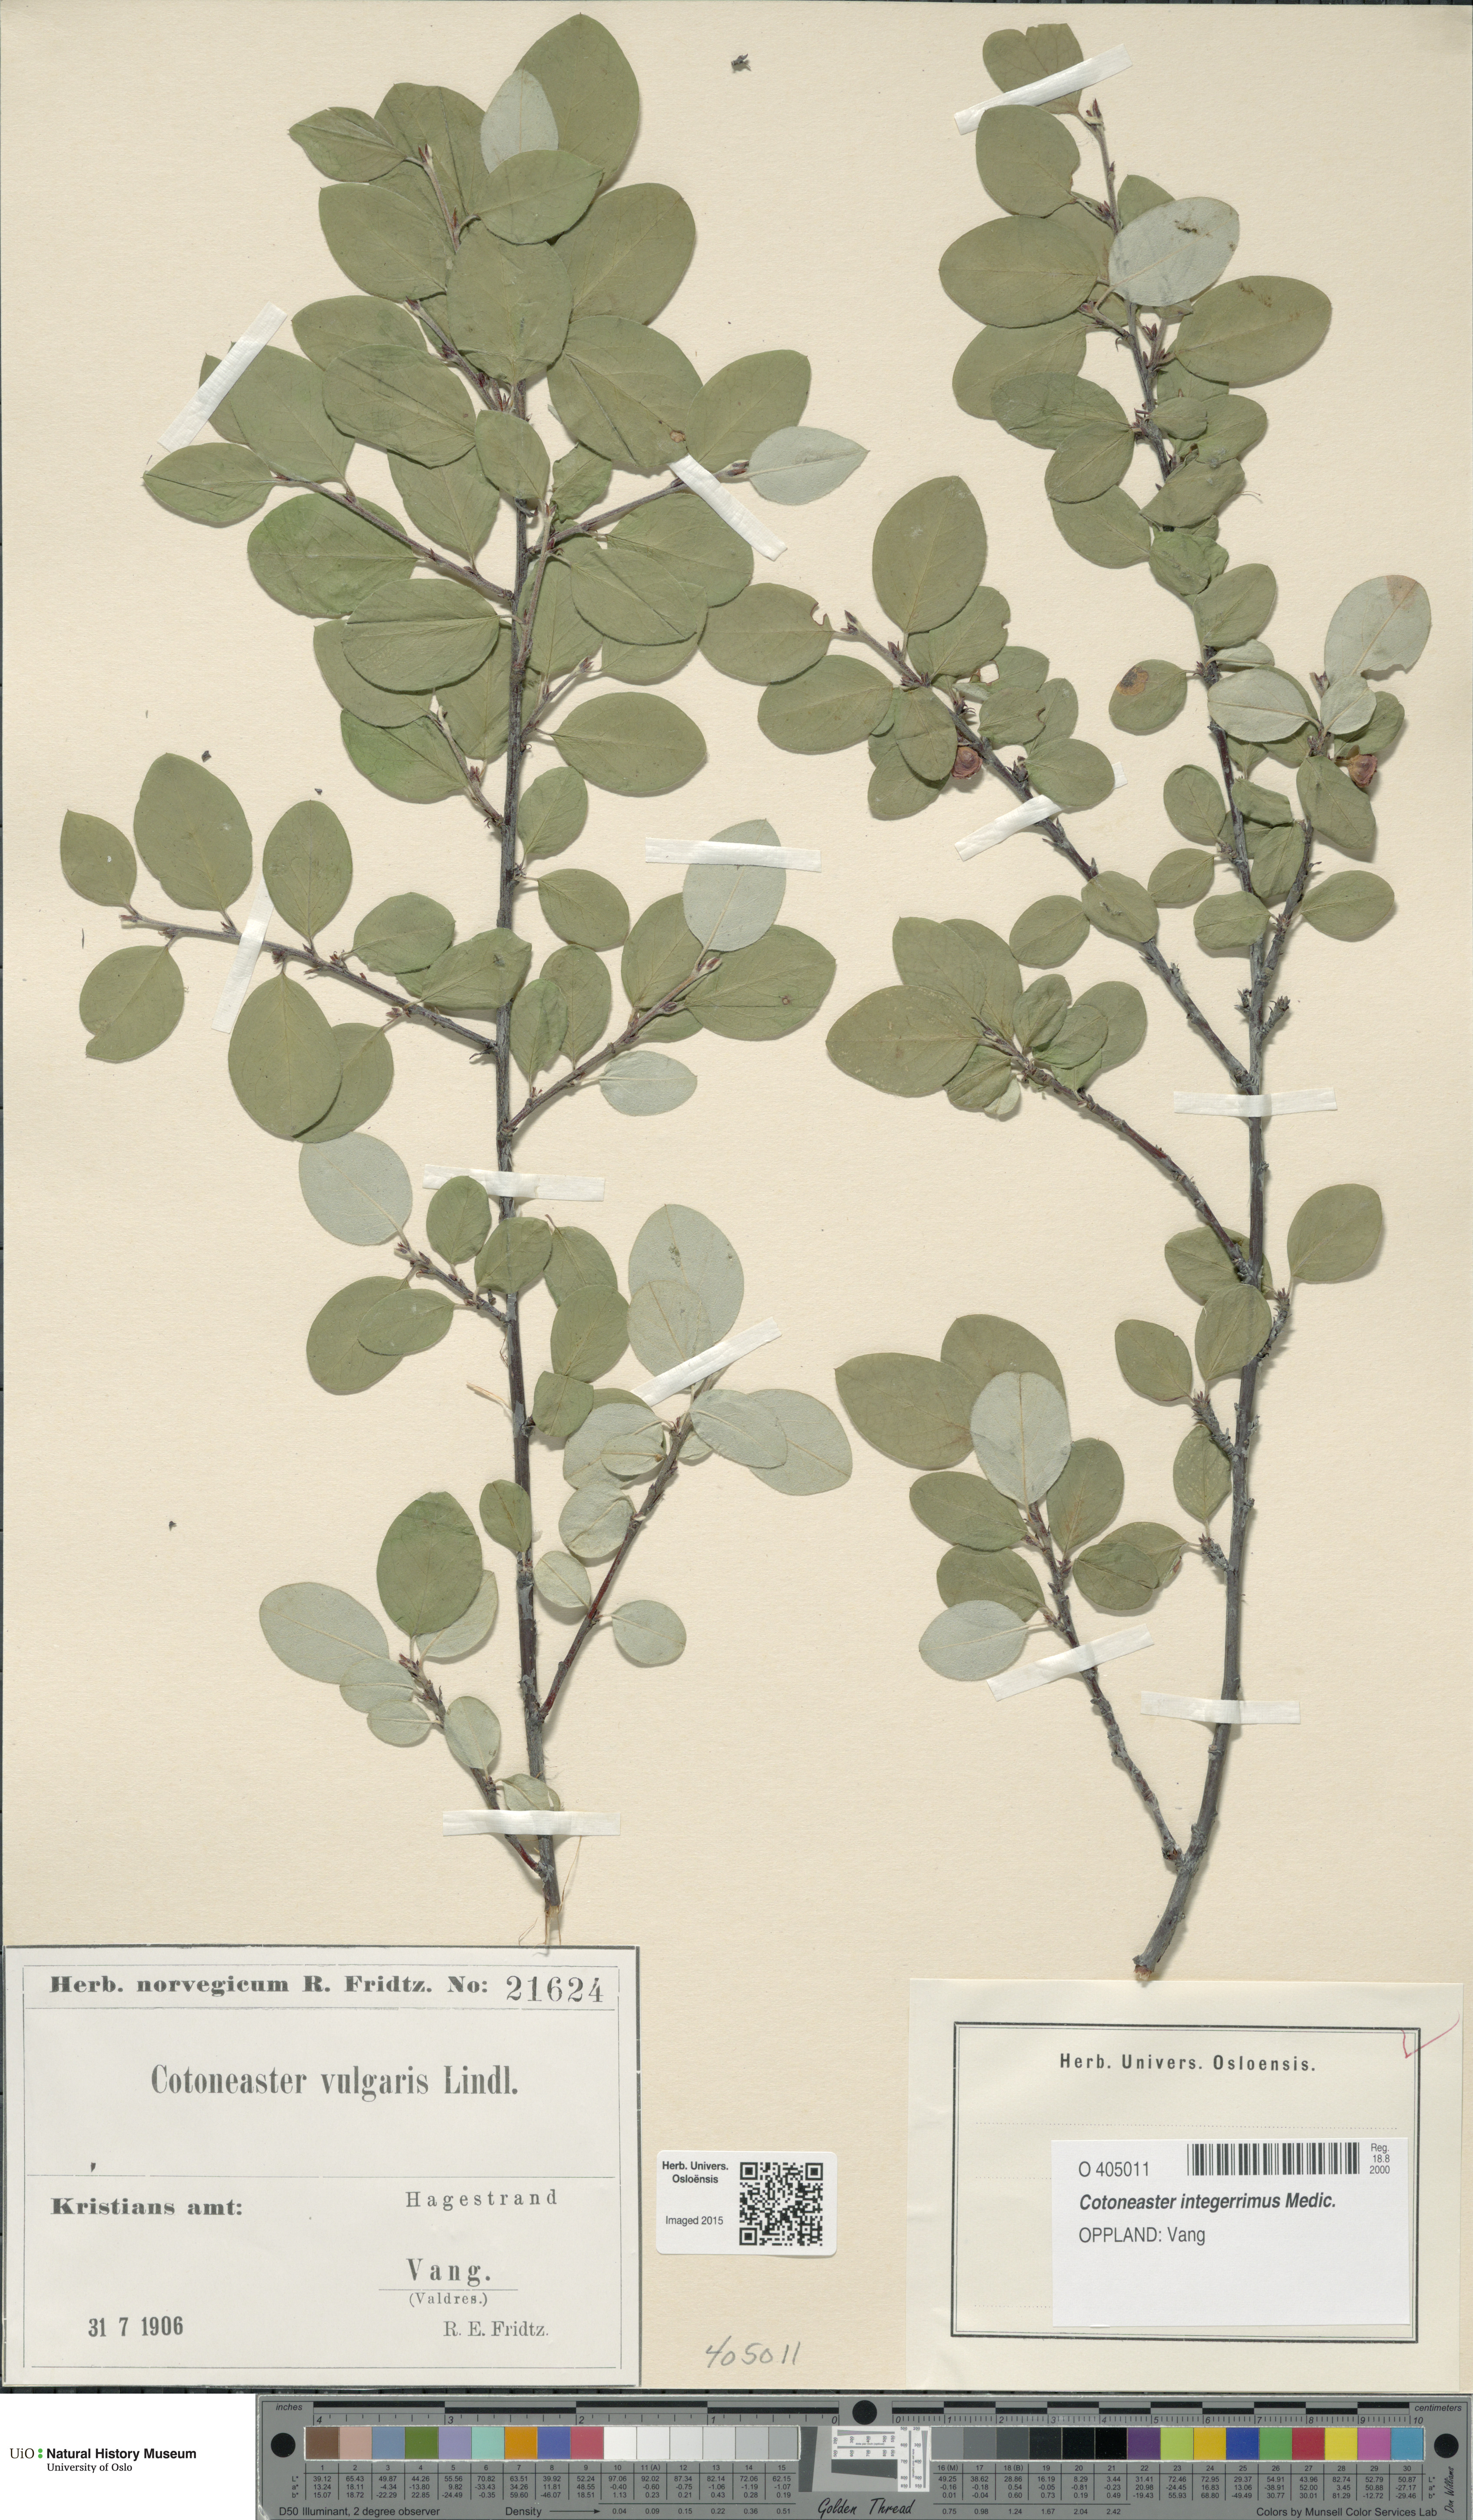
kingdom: Plantae
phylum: Tracheophyta
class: Magnoliopsida
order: Rosales
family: Rosaceae
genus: Cotoneaster
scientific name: Cotoneaster integerrimus
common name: Wild cotoneaster
